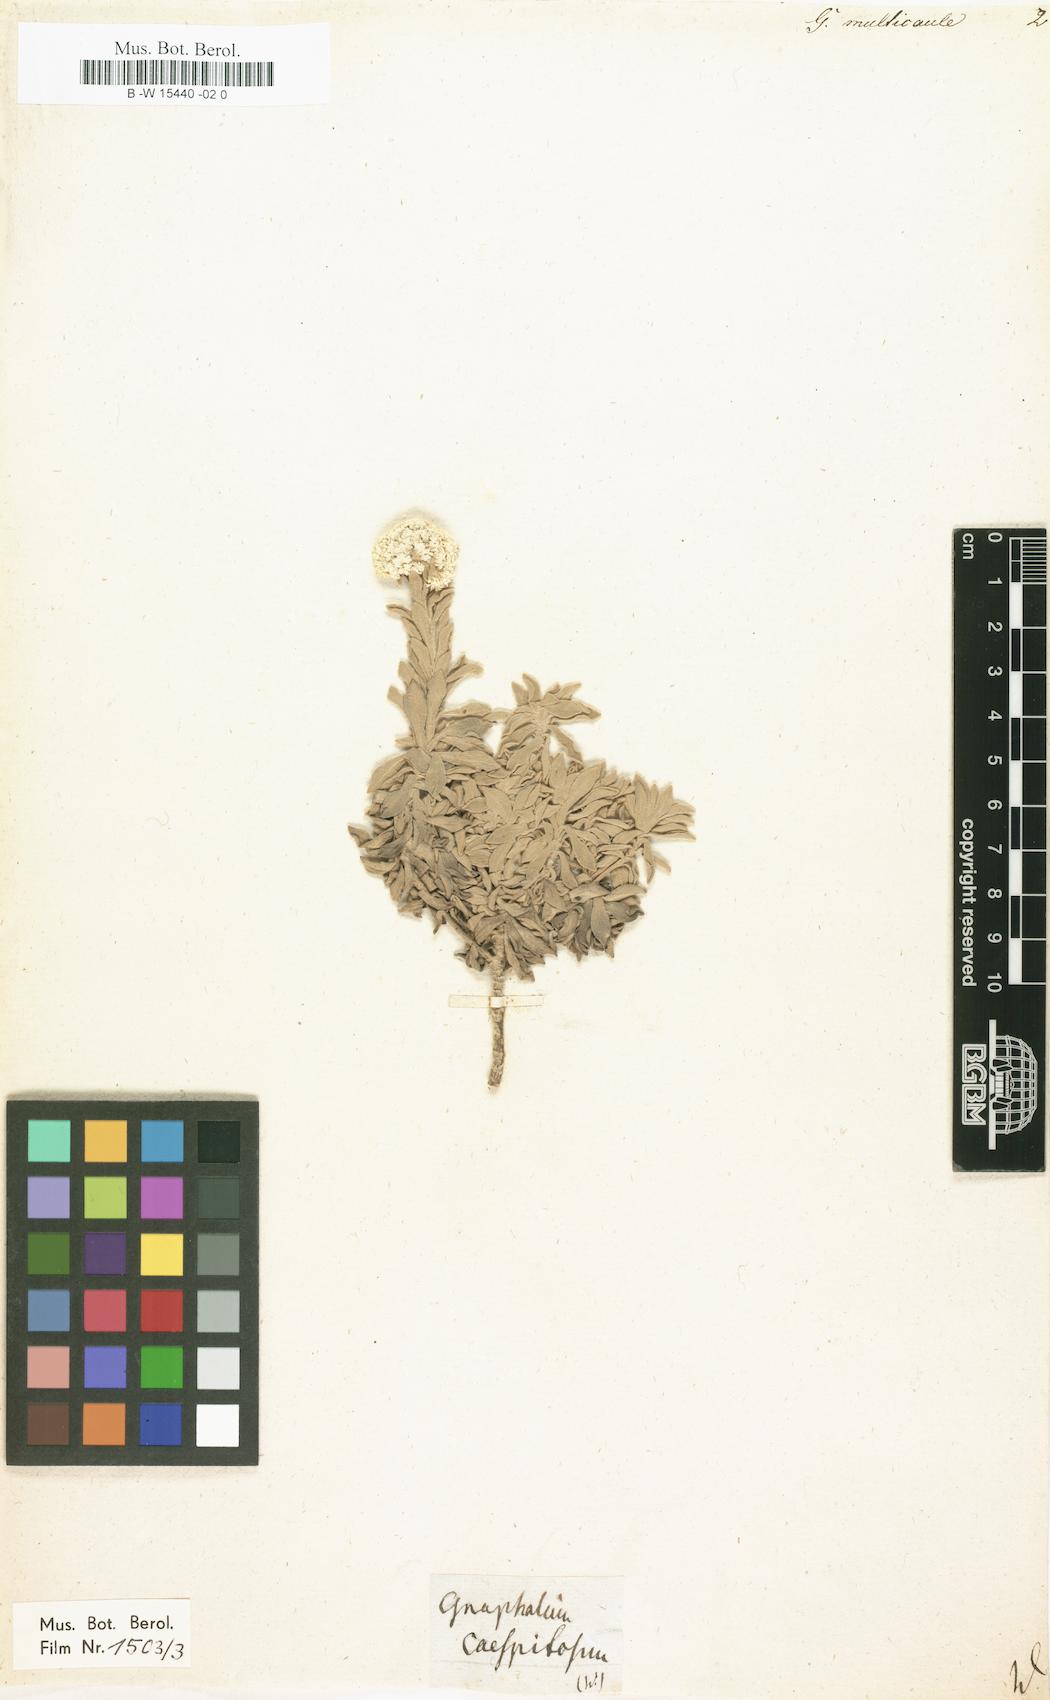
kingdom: Plantae
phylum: Tracheophyta
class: Magnoliopsida
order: Asterales
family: Asteraceae
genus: Helichrysum
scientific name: Helichrysum cespitosum
